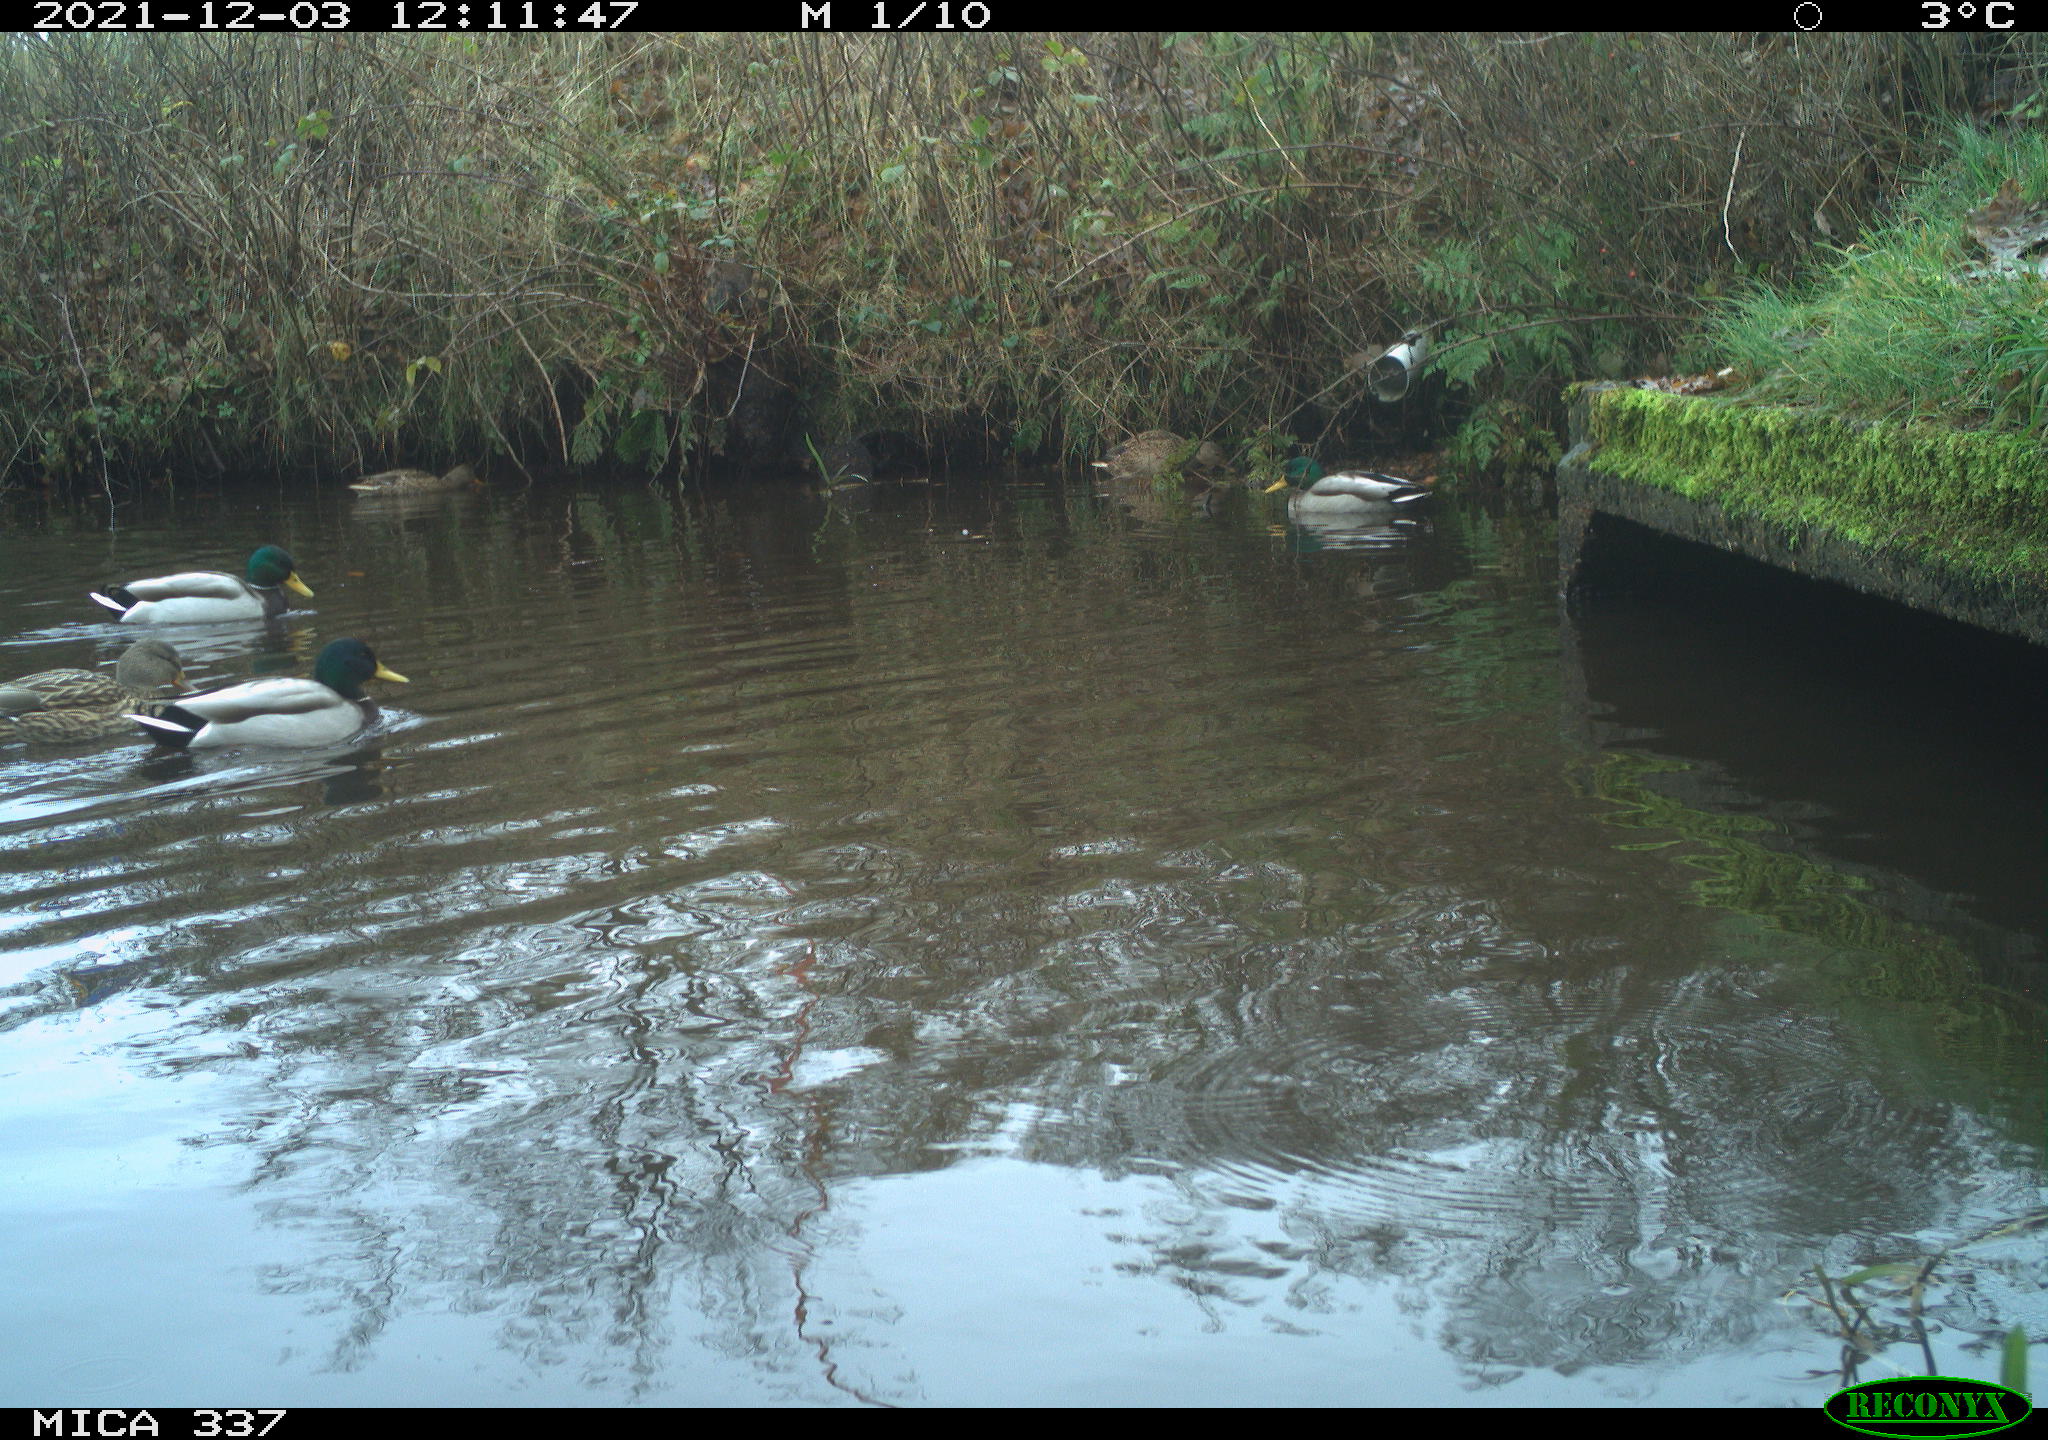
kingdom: Animalia
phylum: Chordata
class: Aves
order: Anseriformes
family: Anatidae
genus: Anas
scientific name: Anas platyrhynchos
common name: Mallard
